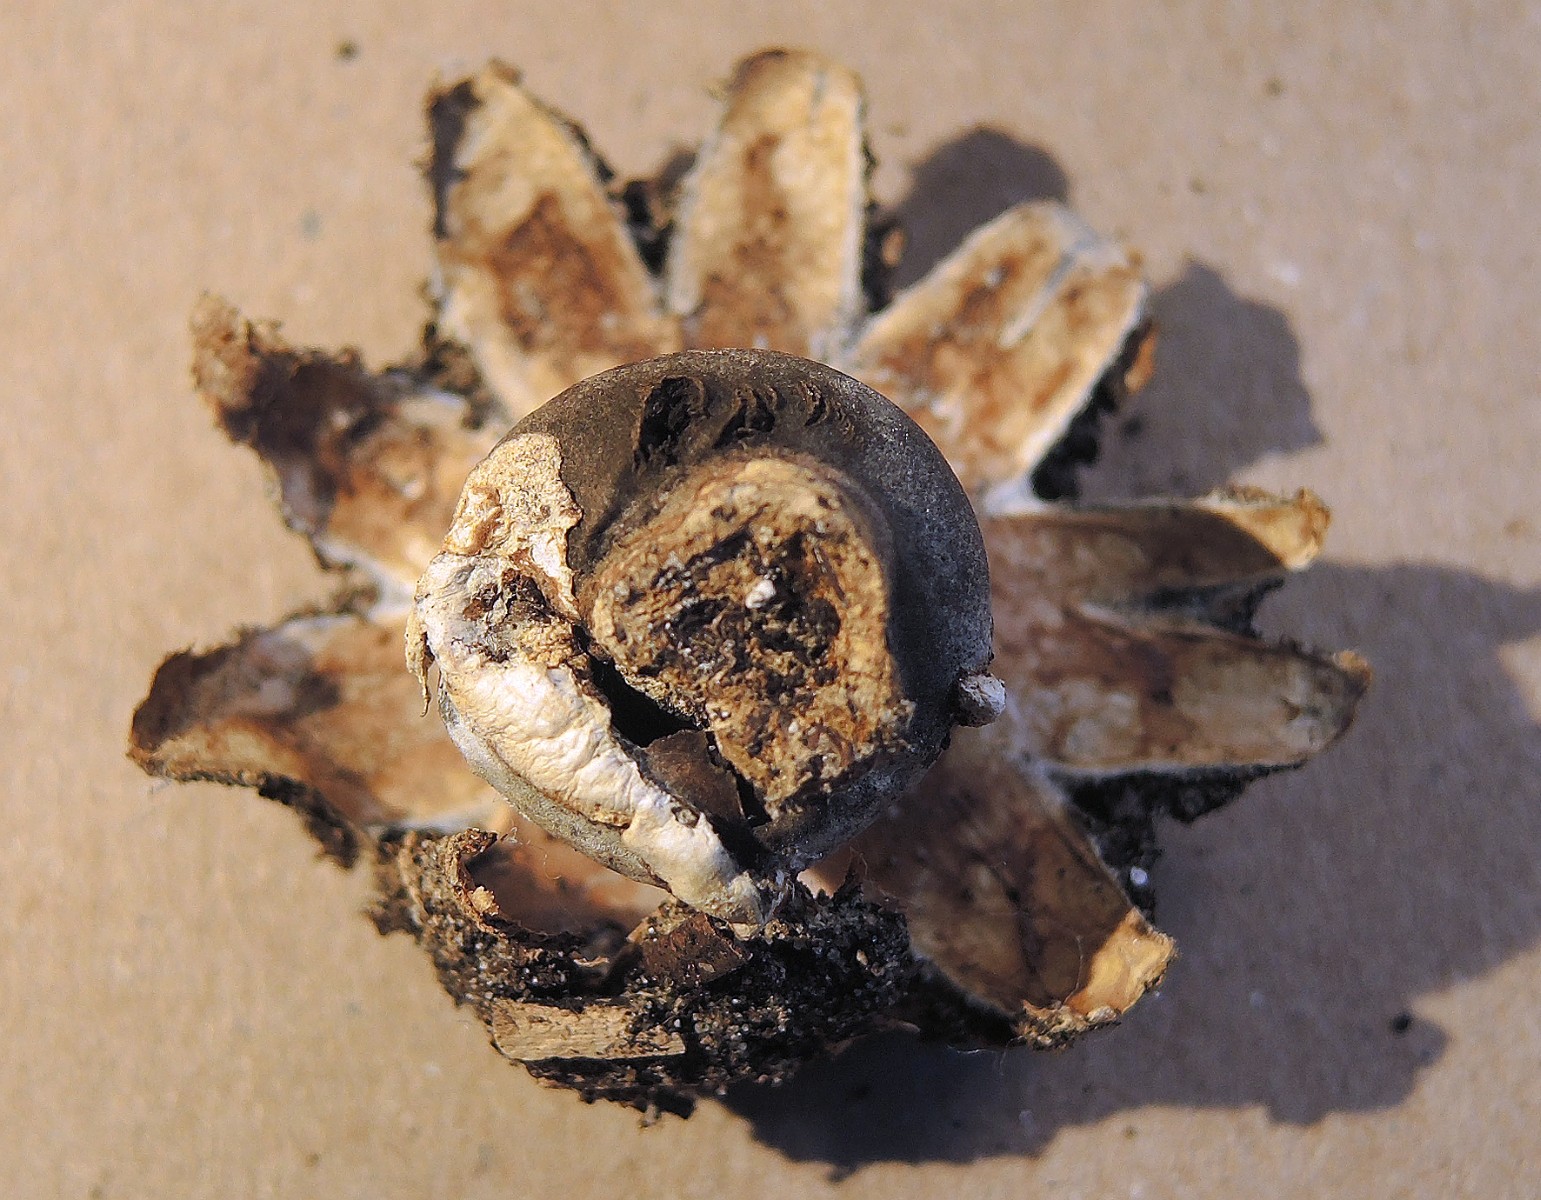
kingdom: Fungi
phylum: Basidiomycota
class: Agaricomycetes
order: Geastrales
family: Geastraceae
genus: Geastrum
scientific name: Geastrum coronatum
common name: mørk stjernebold
